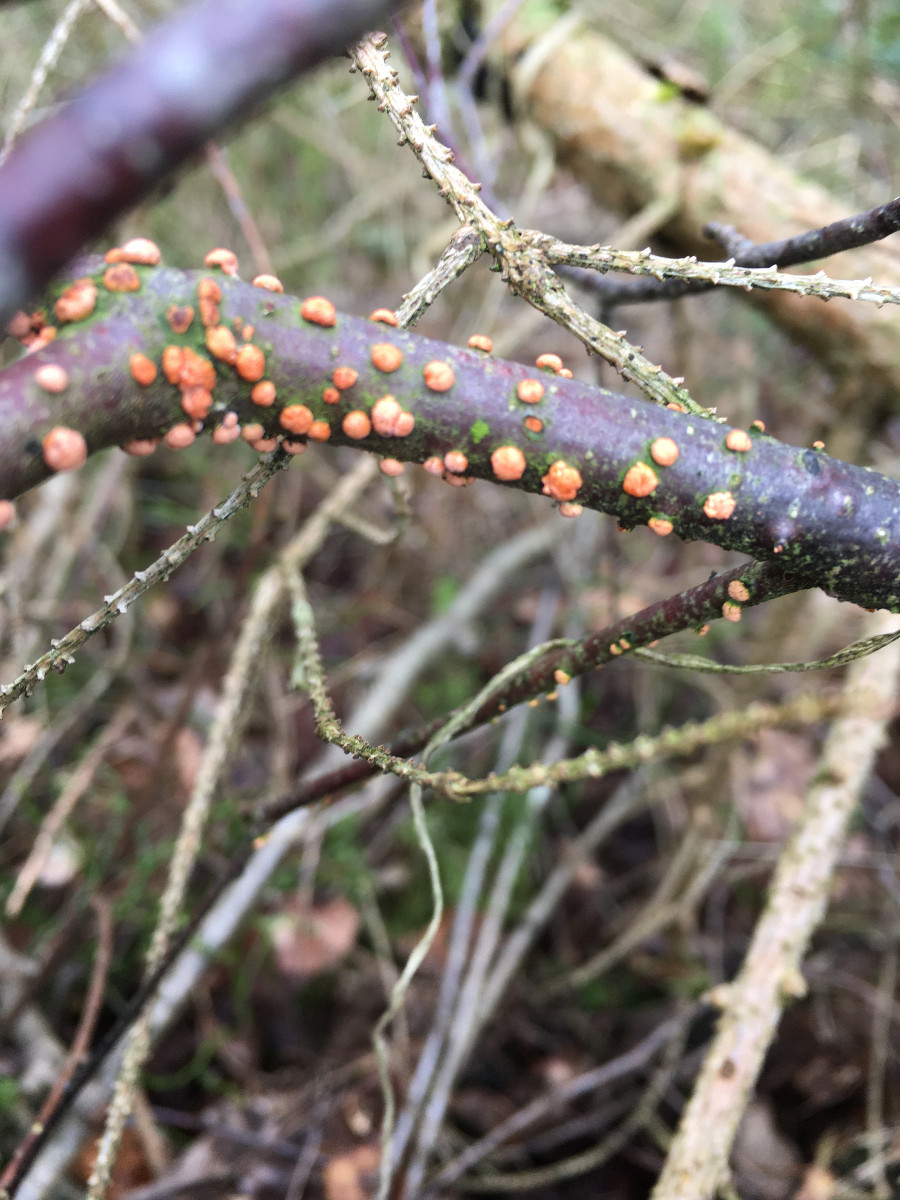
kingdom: Fungi
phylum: Ascomycota
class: Sordariomycetes
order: Hypocreales
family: Nectriaceae
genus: Nectria
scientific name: Nectria cinnabarina
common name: almindelig cinnobersvamp
